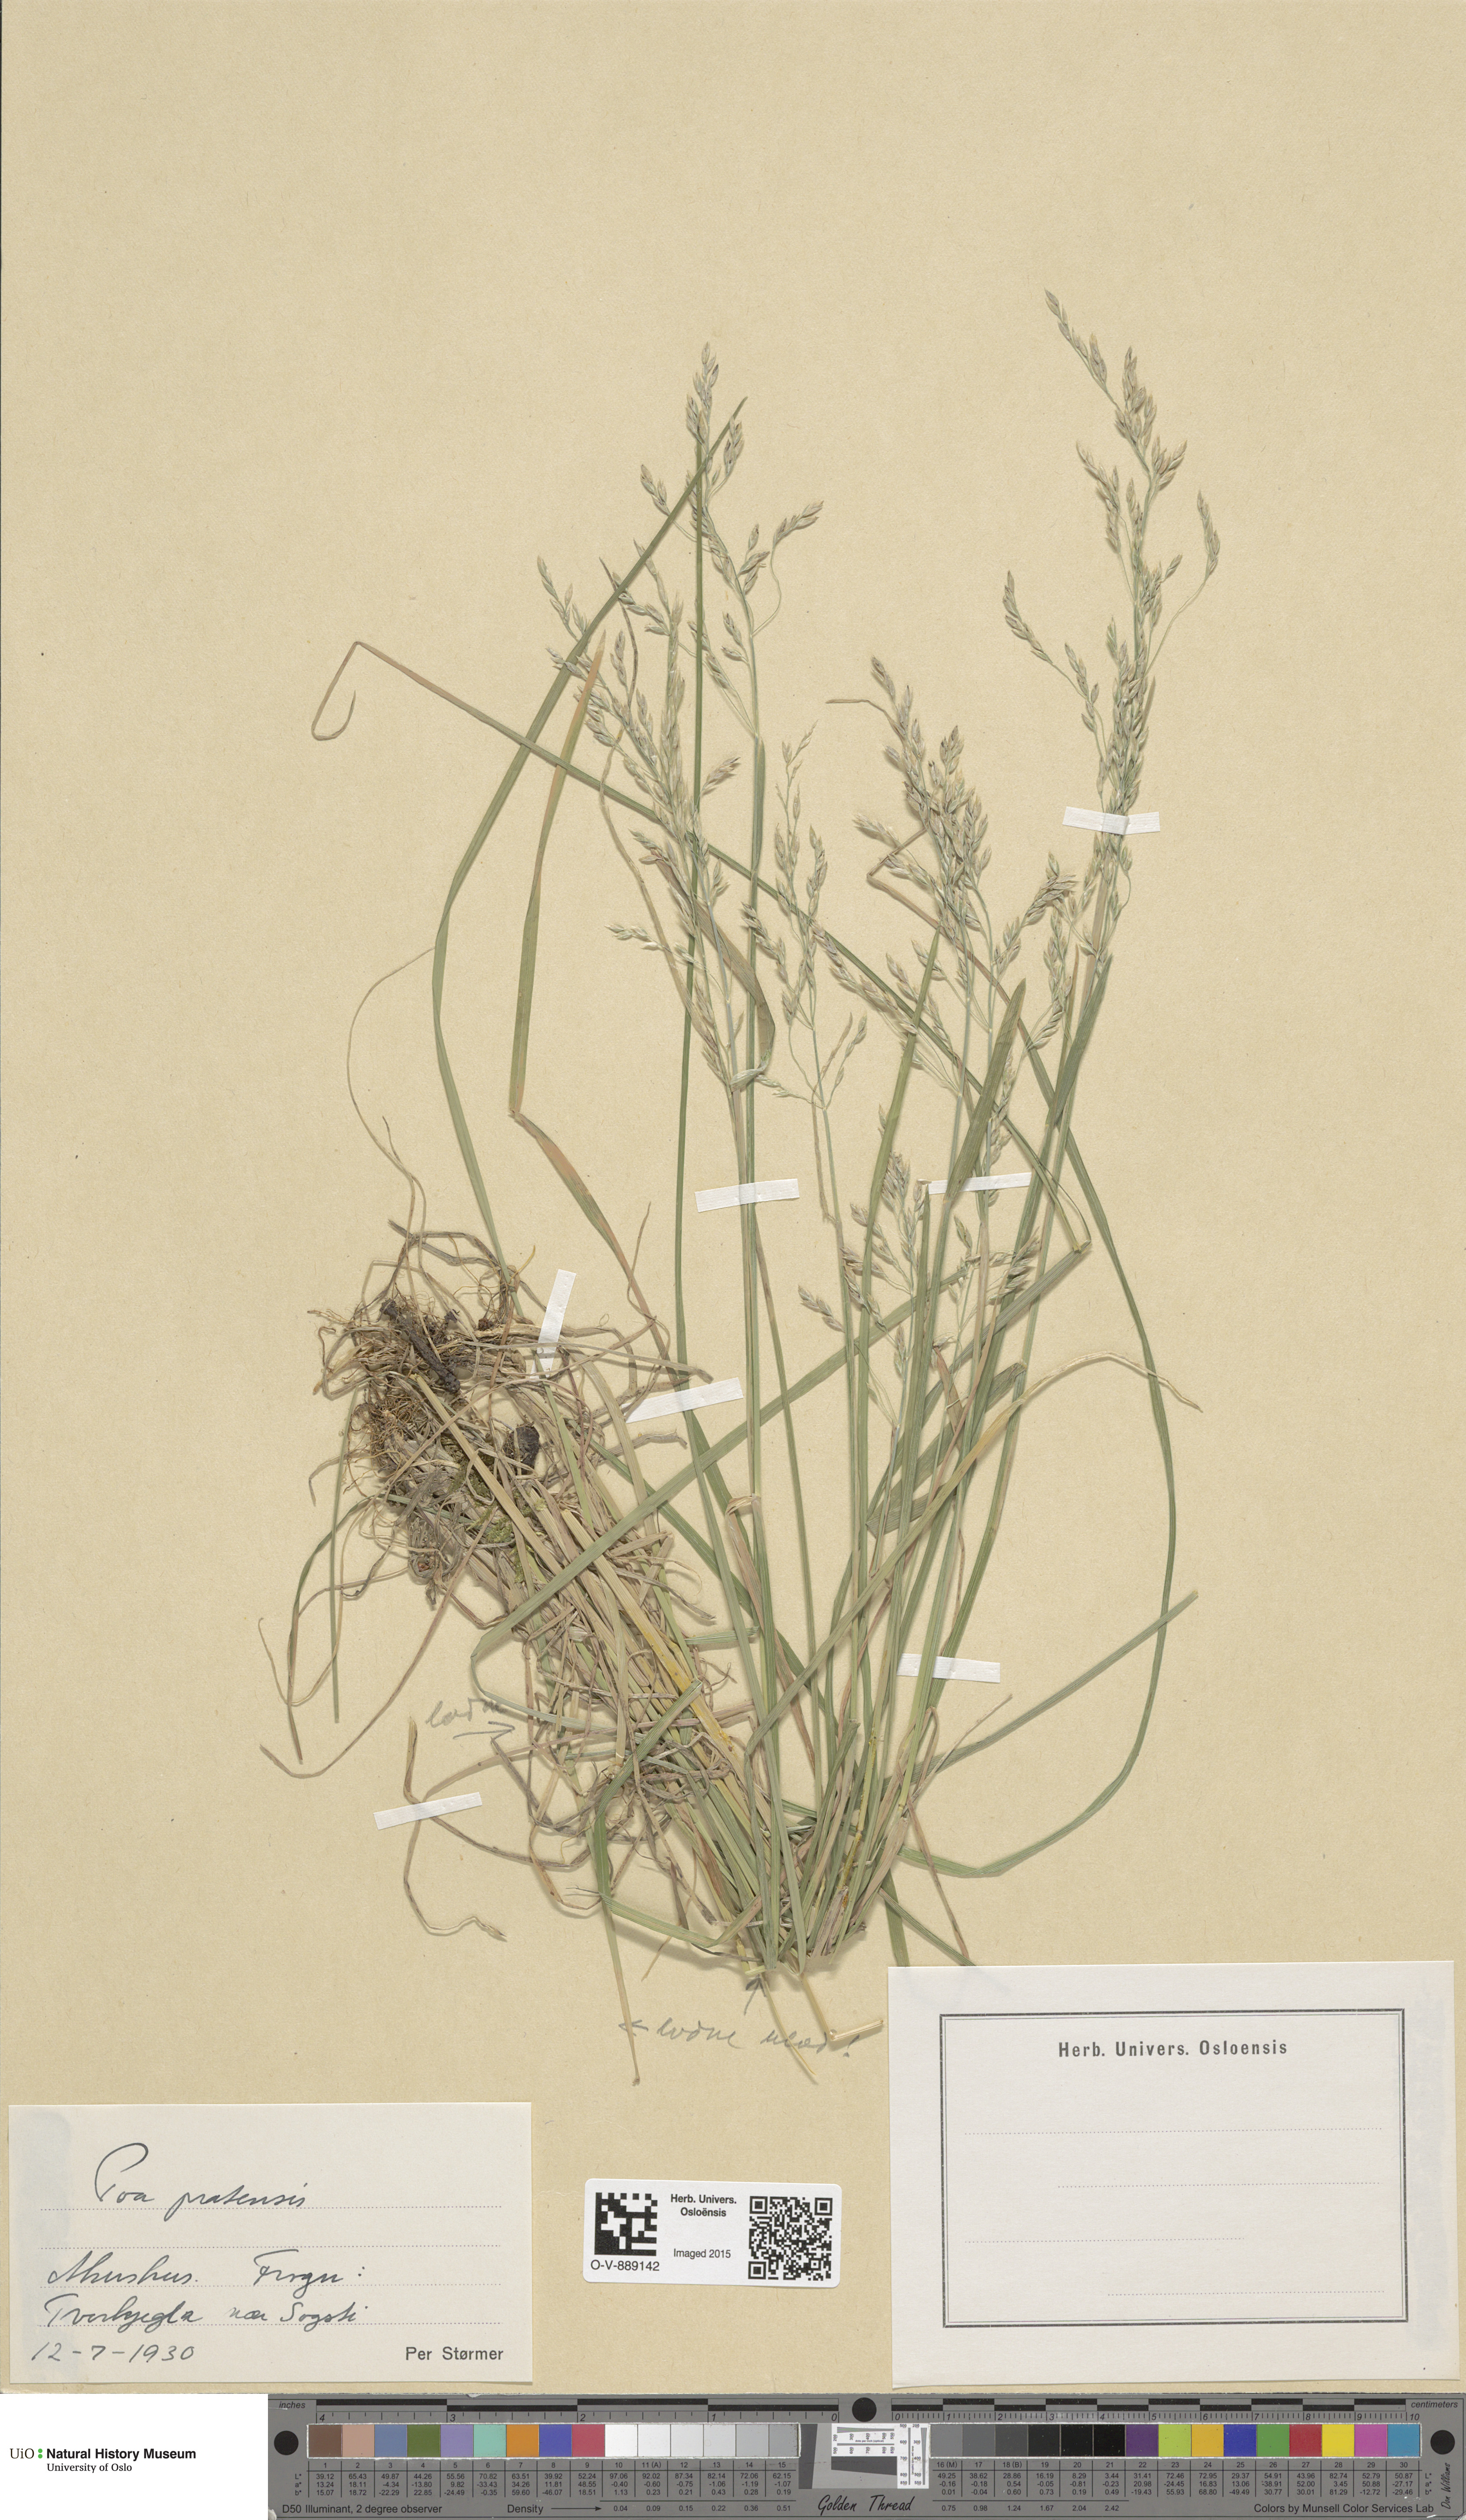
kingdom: Plantae
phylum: Tracheophyta
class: Liliopsida
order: Poales
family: Poaceae
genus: Poa
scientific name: Poa pratensis
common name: Kentucky bluegrass
